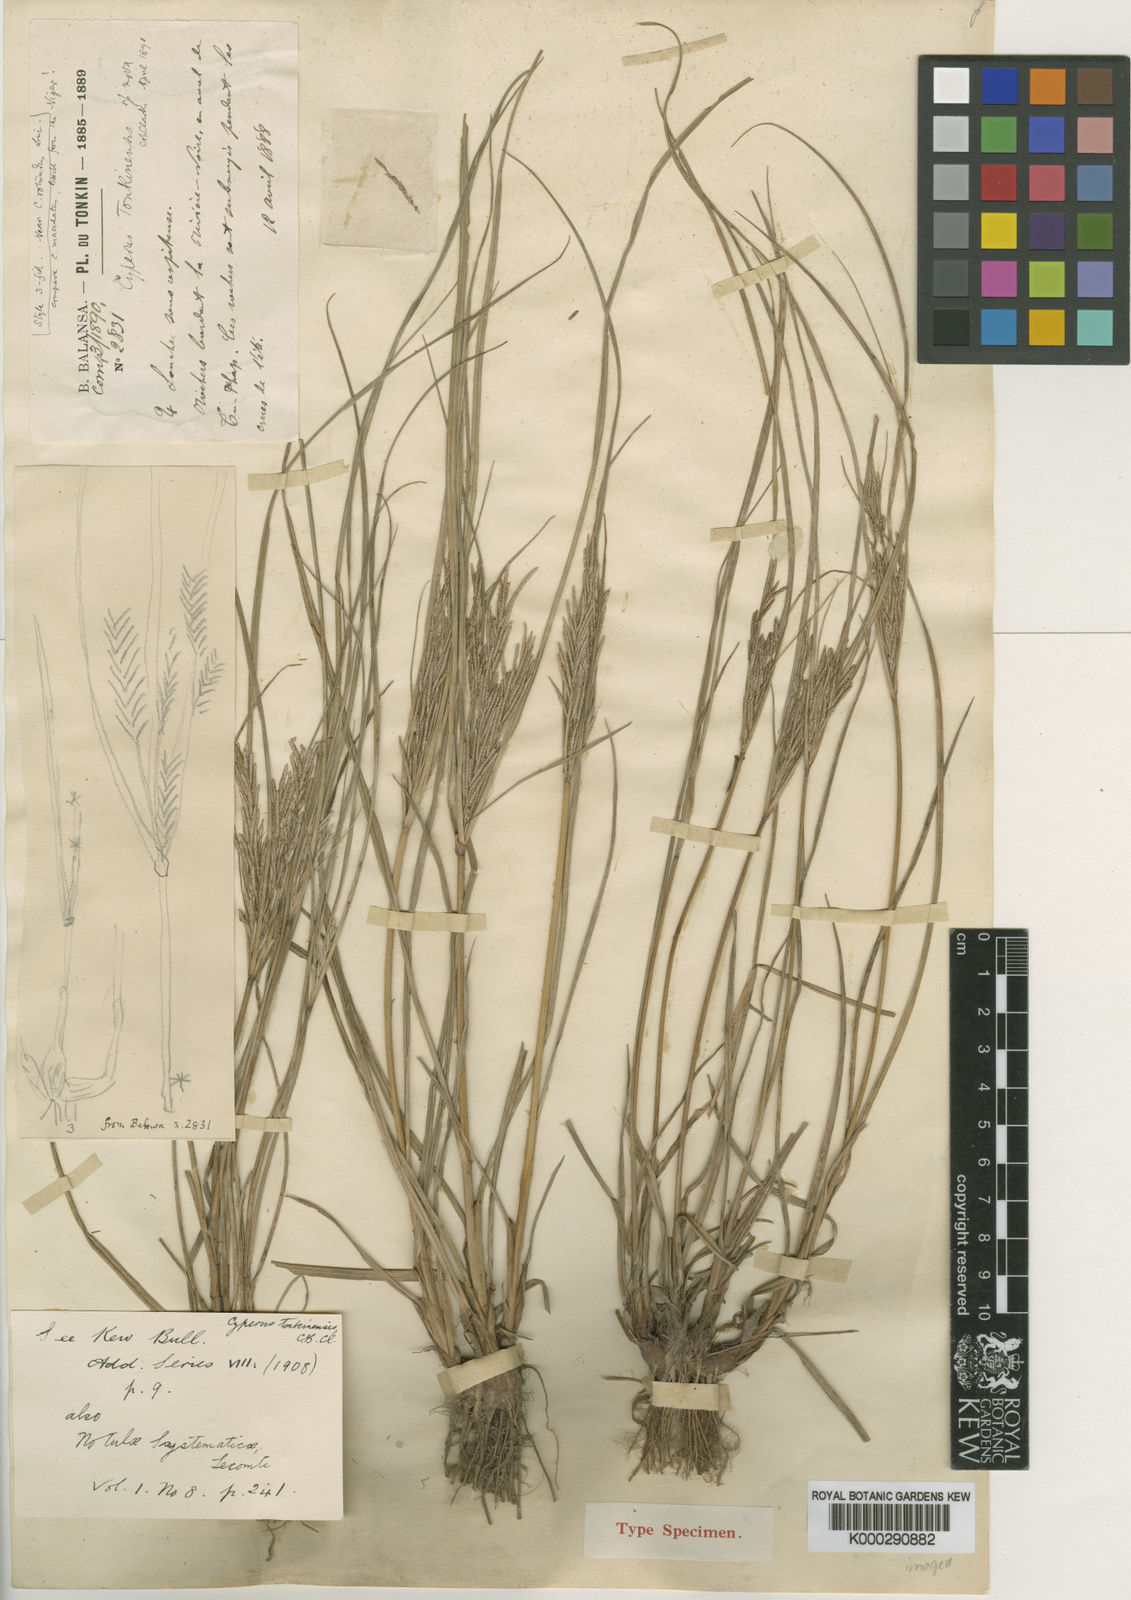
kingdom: Plantae
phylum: Tracheophyta
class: Liliopsida
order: Poales
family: Cyperaceae
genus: Cyperus
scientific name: Cyperus tonkinensis
